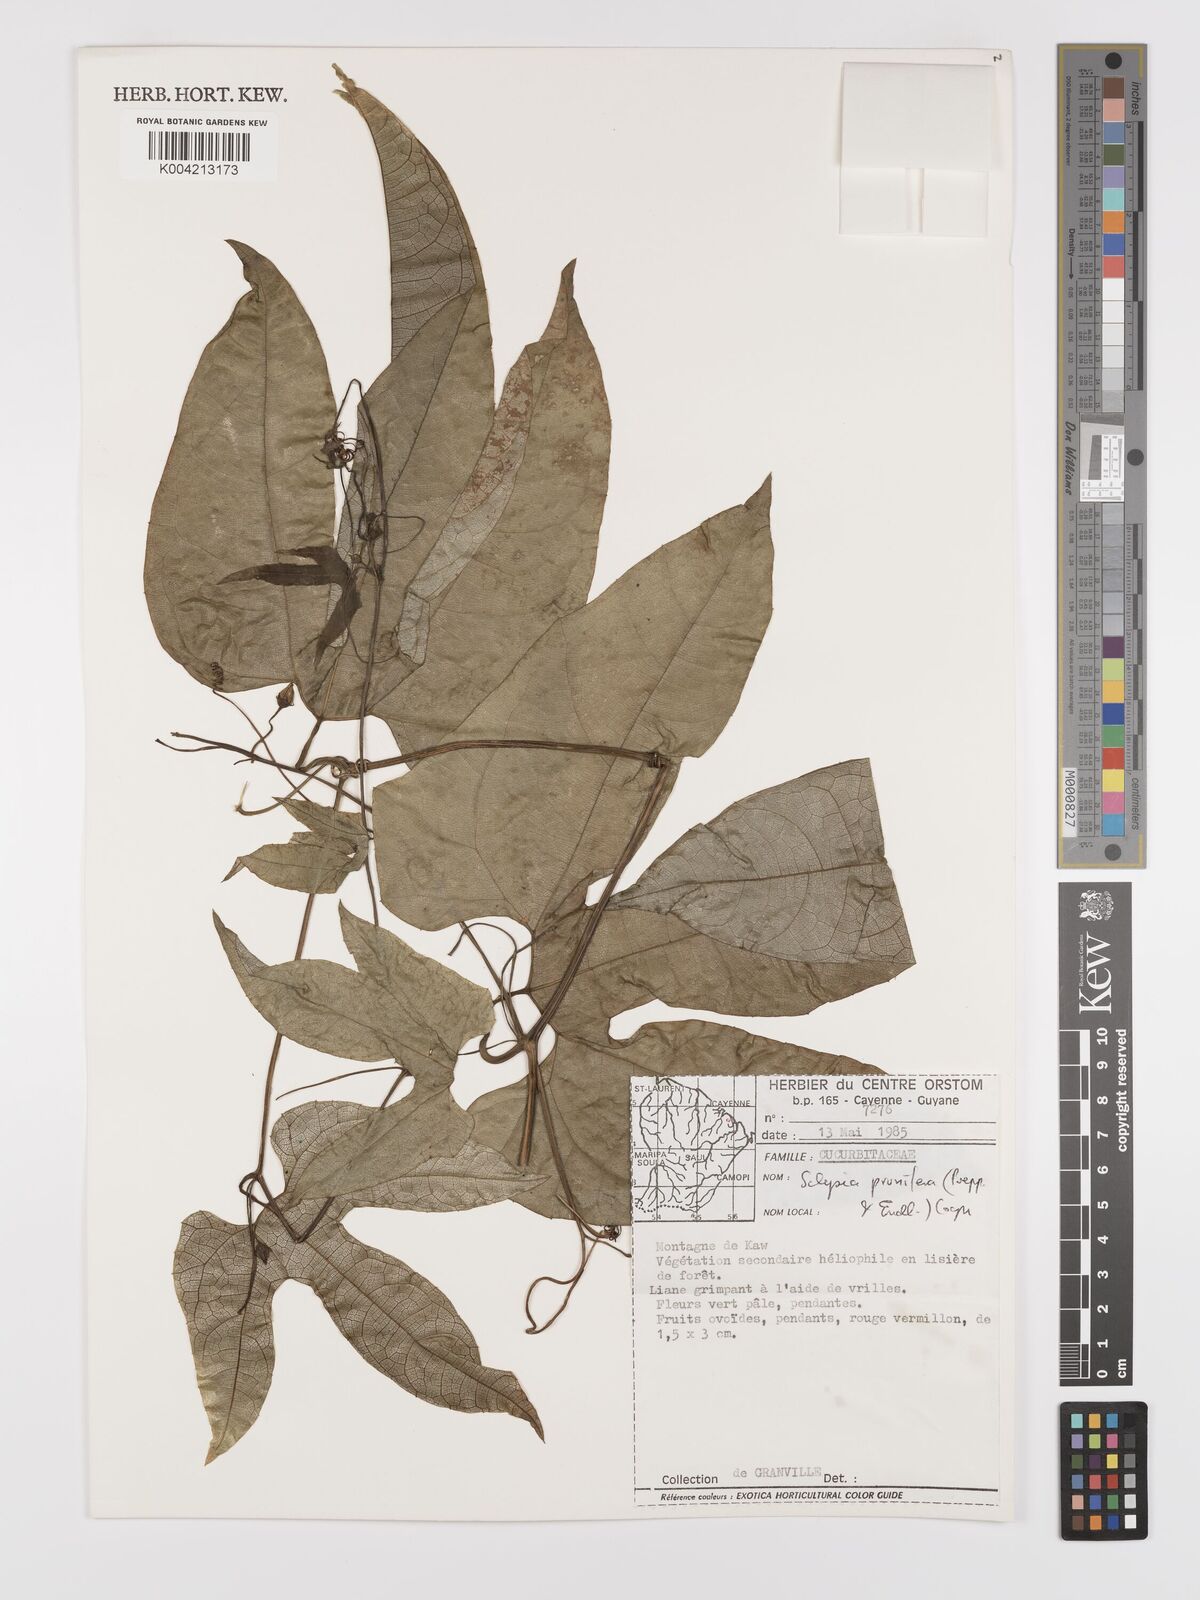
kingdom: Plantae
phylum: Tracheophyta
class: Magnoliopsida
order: Cucurbitales
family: Cucurbitaceae
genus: Cayaponia
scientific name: Cayaponia prunifera
